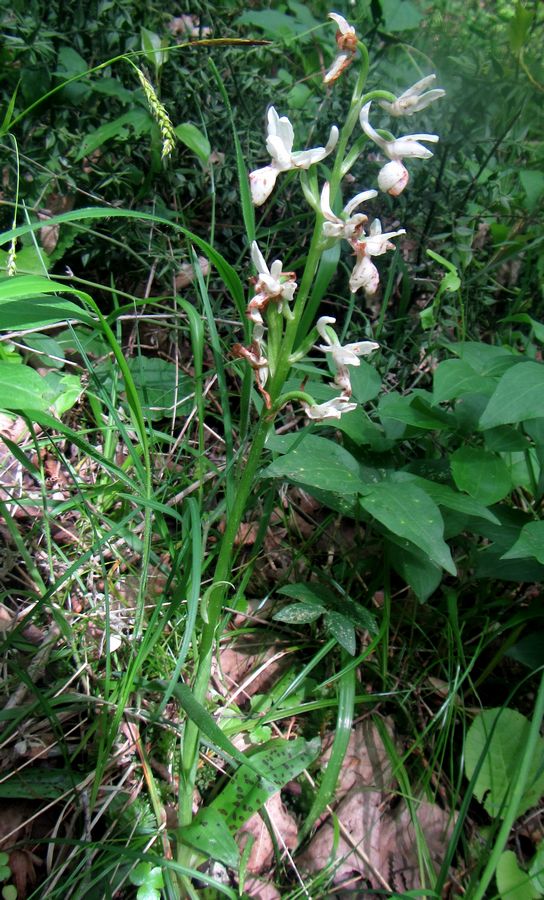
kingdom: Plantae
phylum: Tracheophyta
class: Liliopsida
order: Asparagales
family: Orchidaceae
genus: Orchis
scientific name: Orchis provincialis
